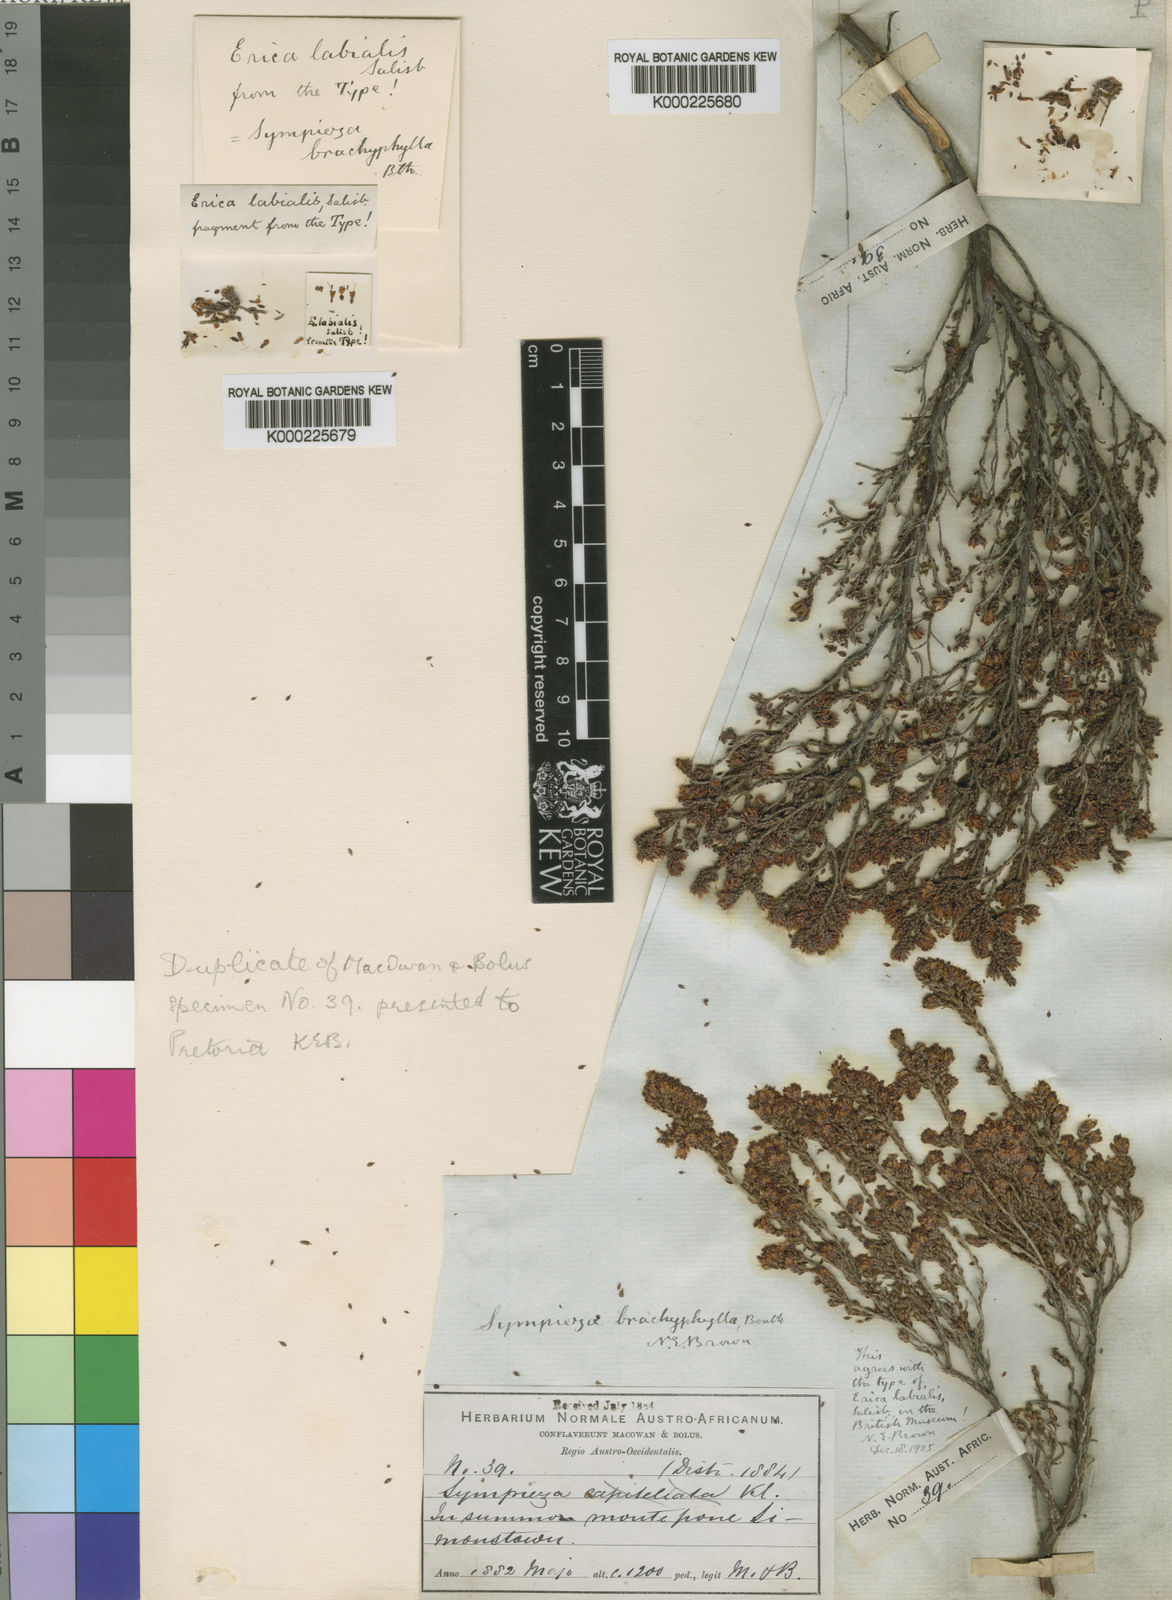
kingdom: Plantae
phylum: Tracheophyta
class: Magnoliopsida
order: Ericales
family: Ericaceae
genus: Erica
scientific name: Erica labialis
